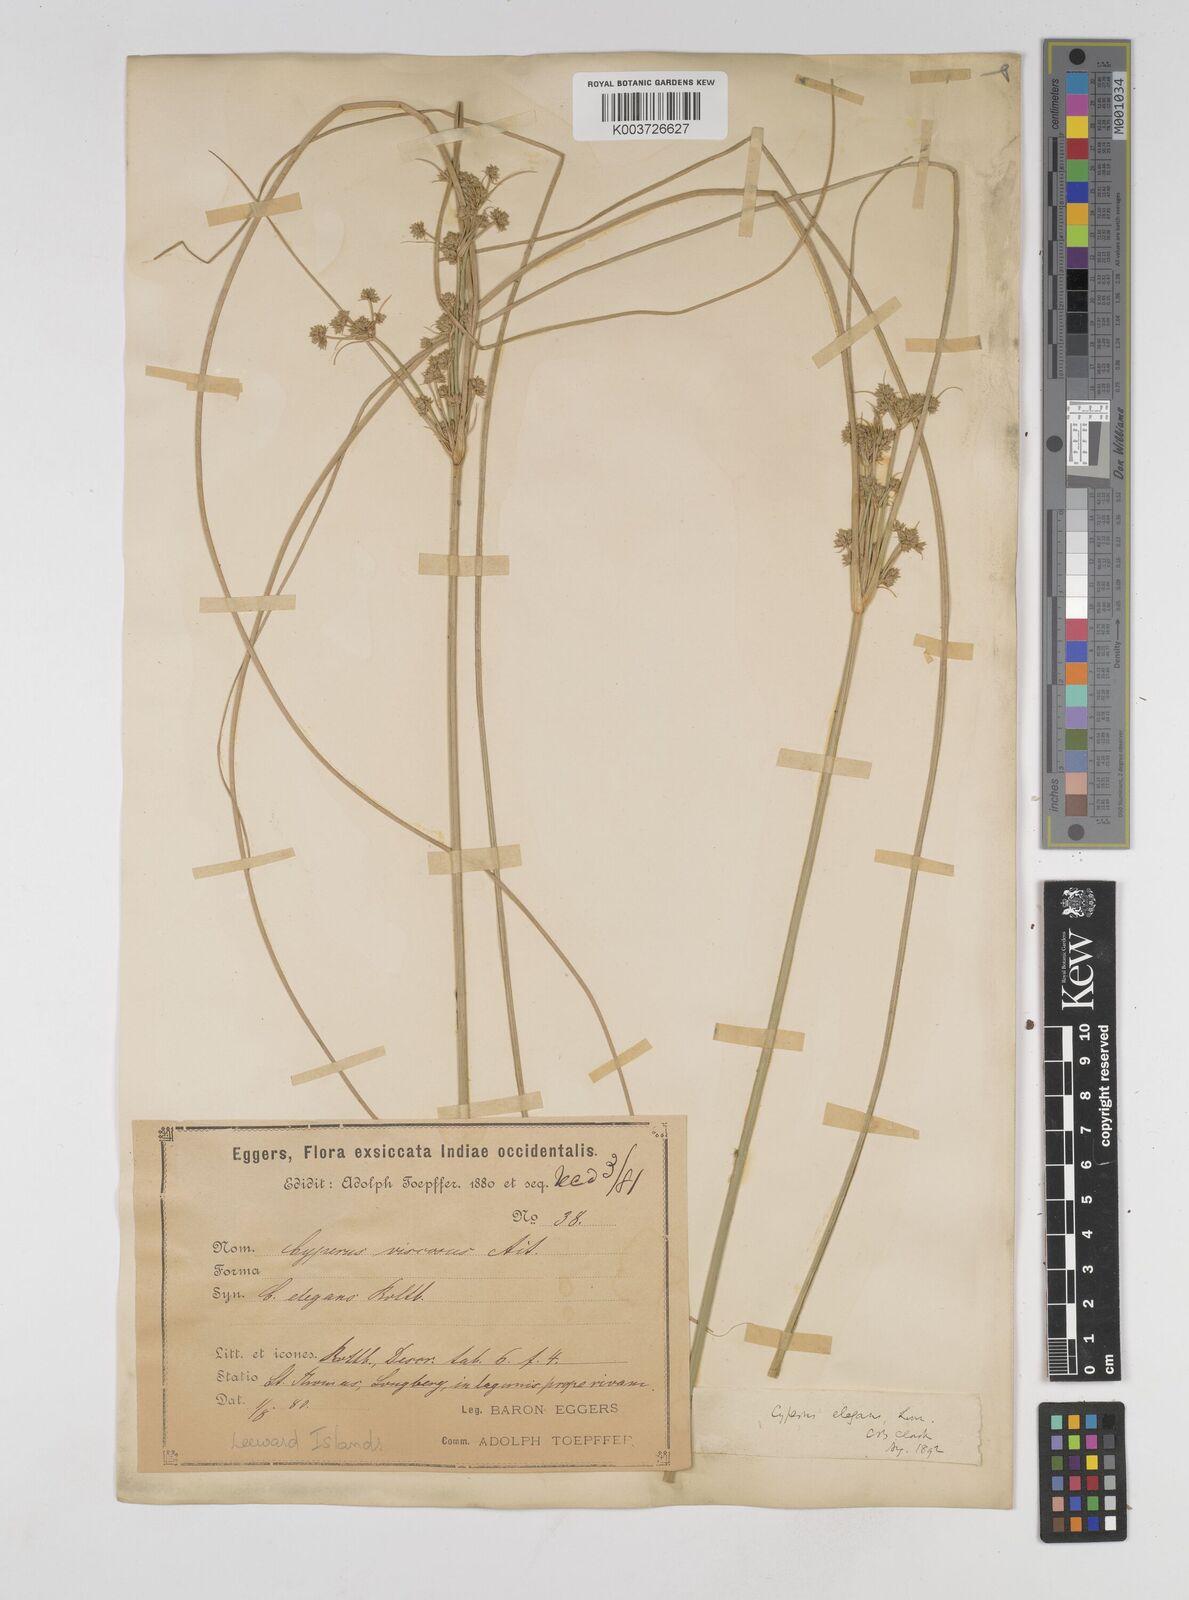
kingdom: Plantae
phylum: Tracheophyta
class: Liliopsida
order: Poales
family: Cyperaceae
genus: Cyperus
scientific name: Cyperus elegans
